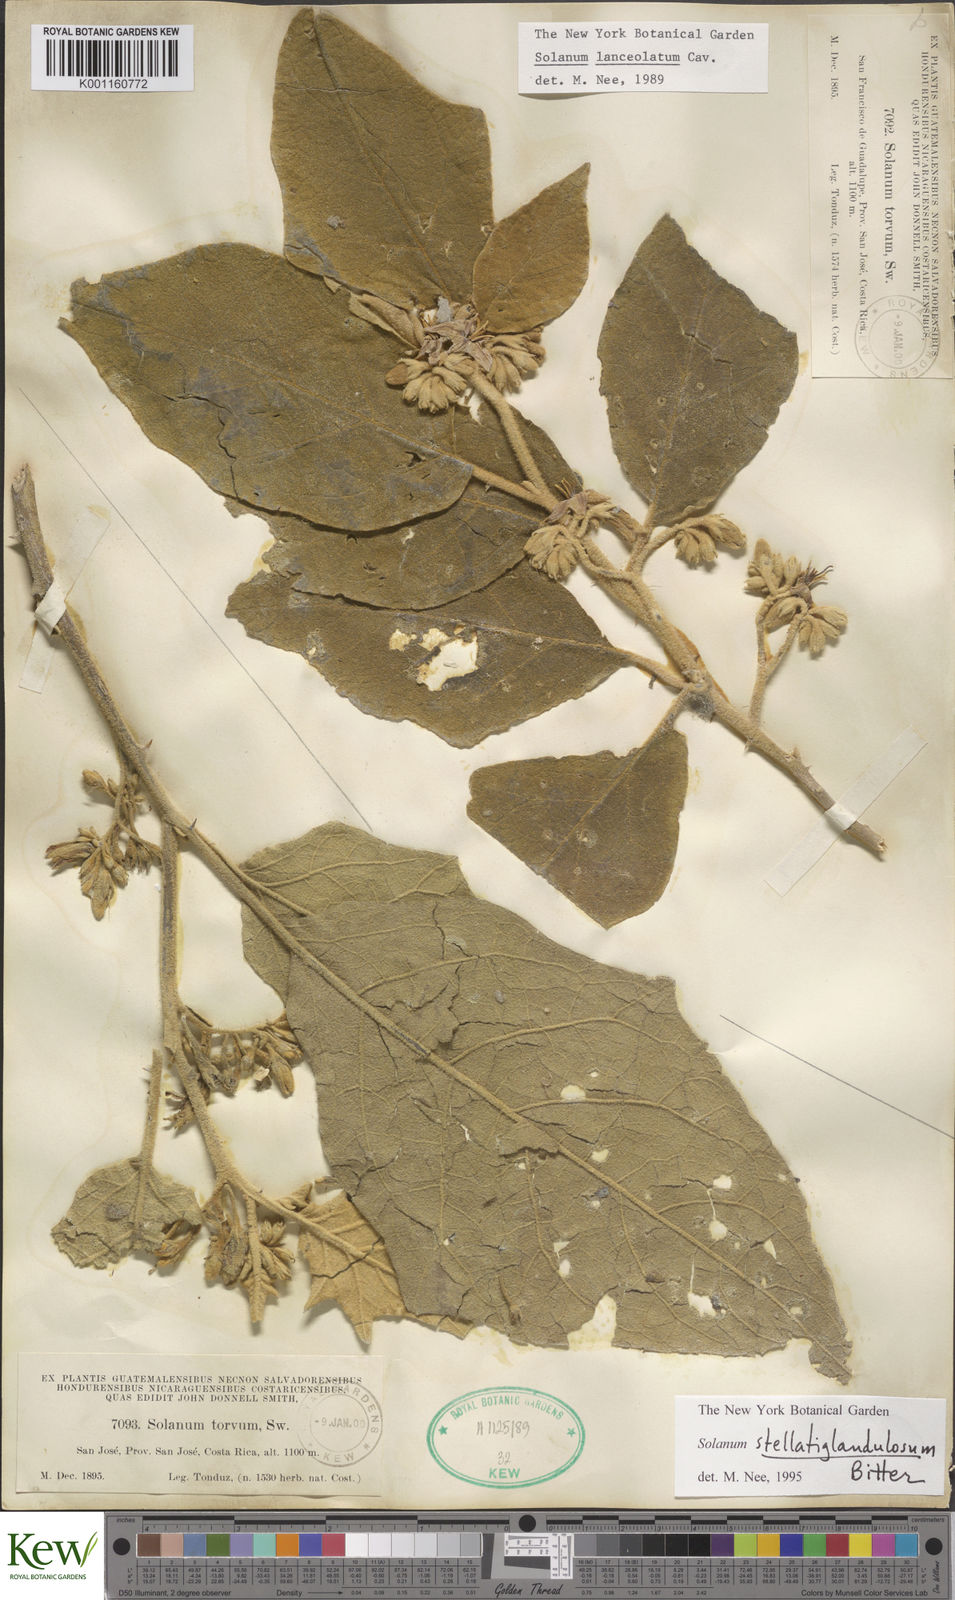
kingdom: Plantae
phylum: Tracheophyta
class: Magnoliopsida
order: Solanales
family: Solanaceae
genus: Solanum
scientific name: Solanum stellatiglandulosum
